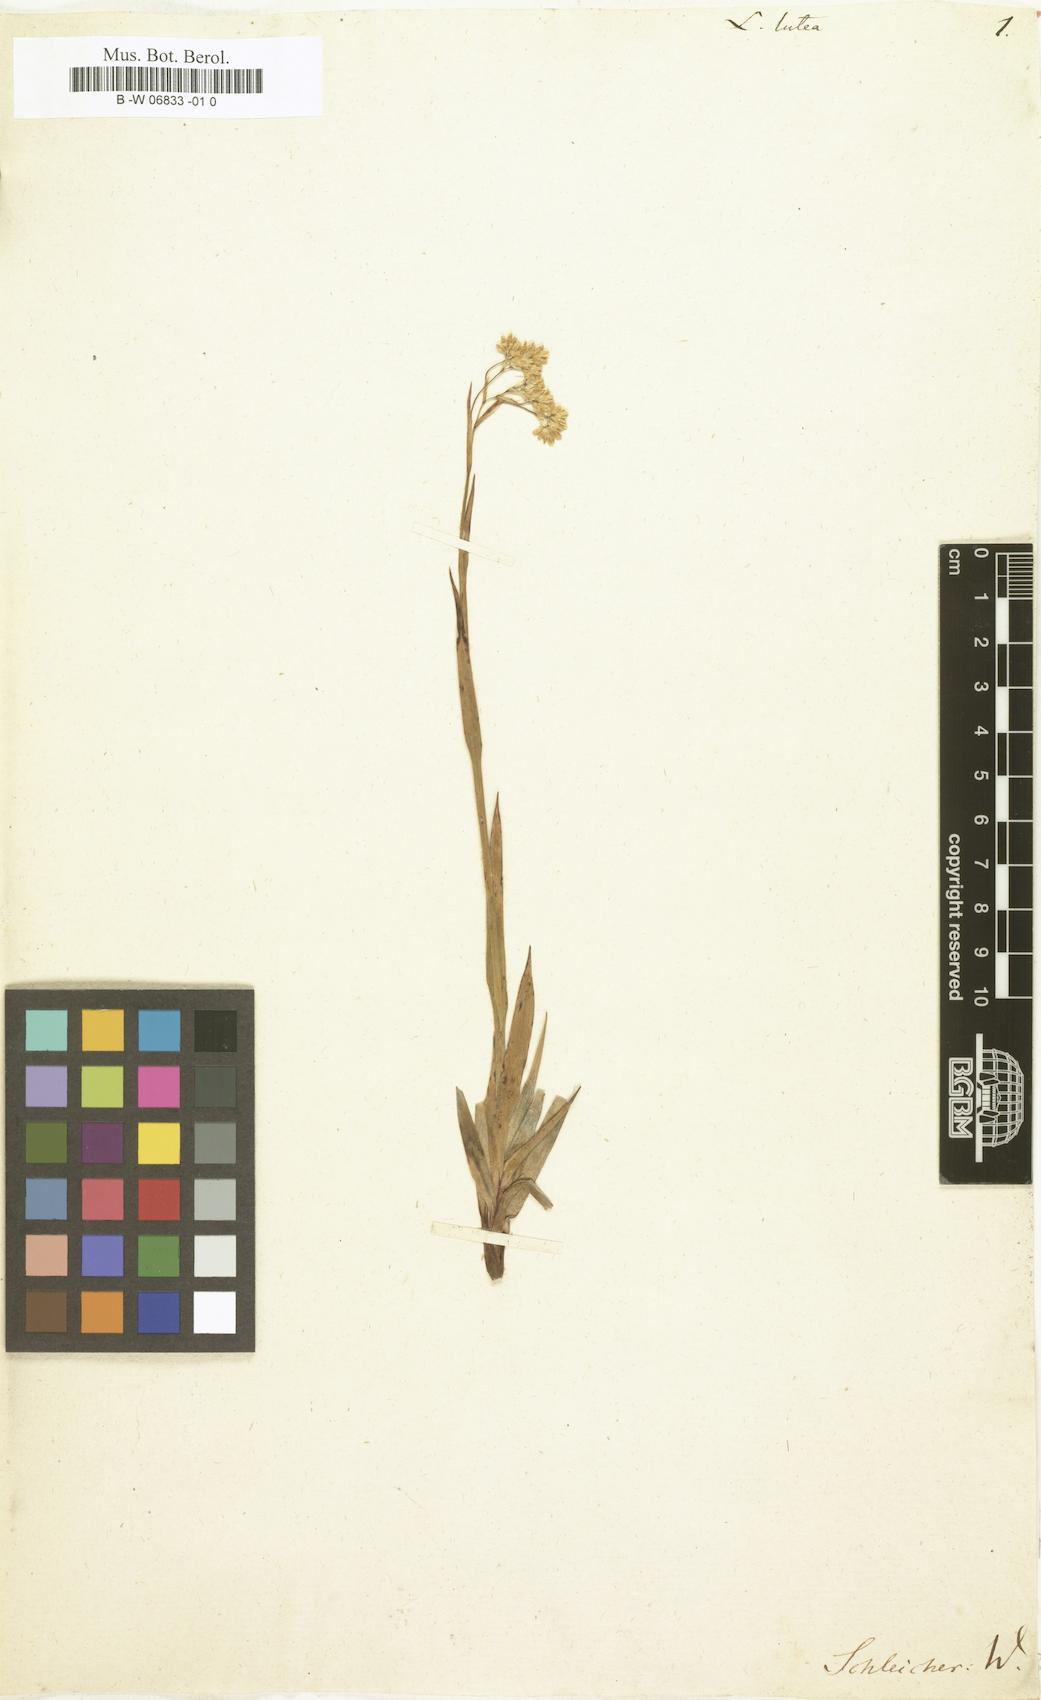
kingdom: Plantae
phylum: Tracheophyta
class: Liliopsida
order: Poales
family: Juncaceae
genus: Luzula
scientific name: Luzula lutea
